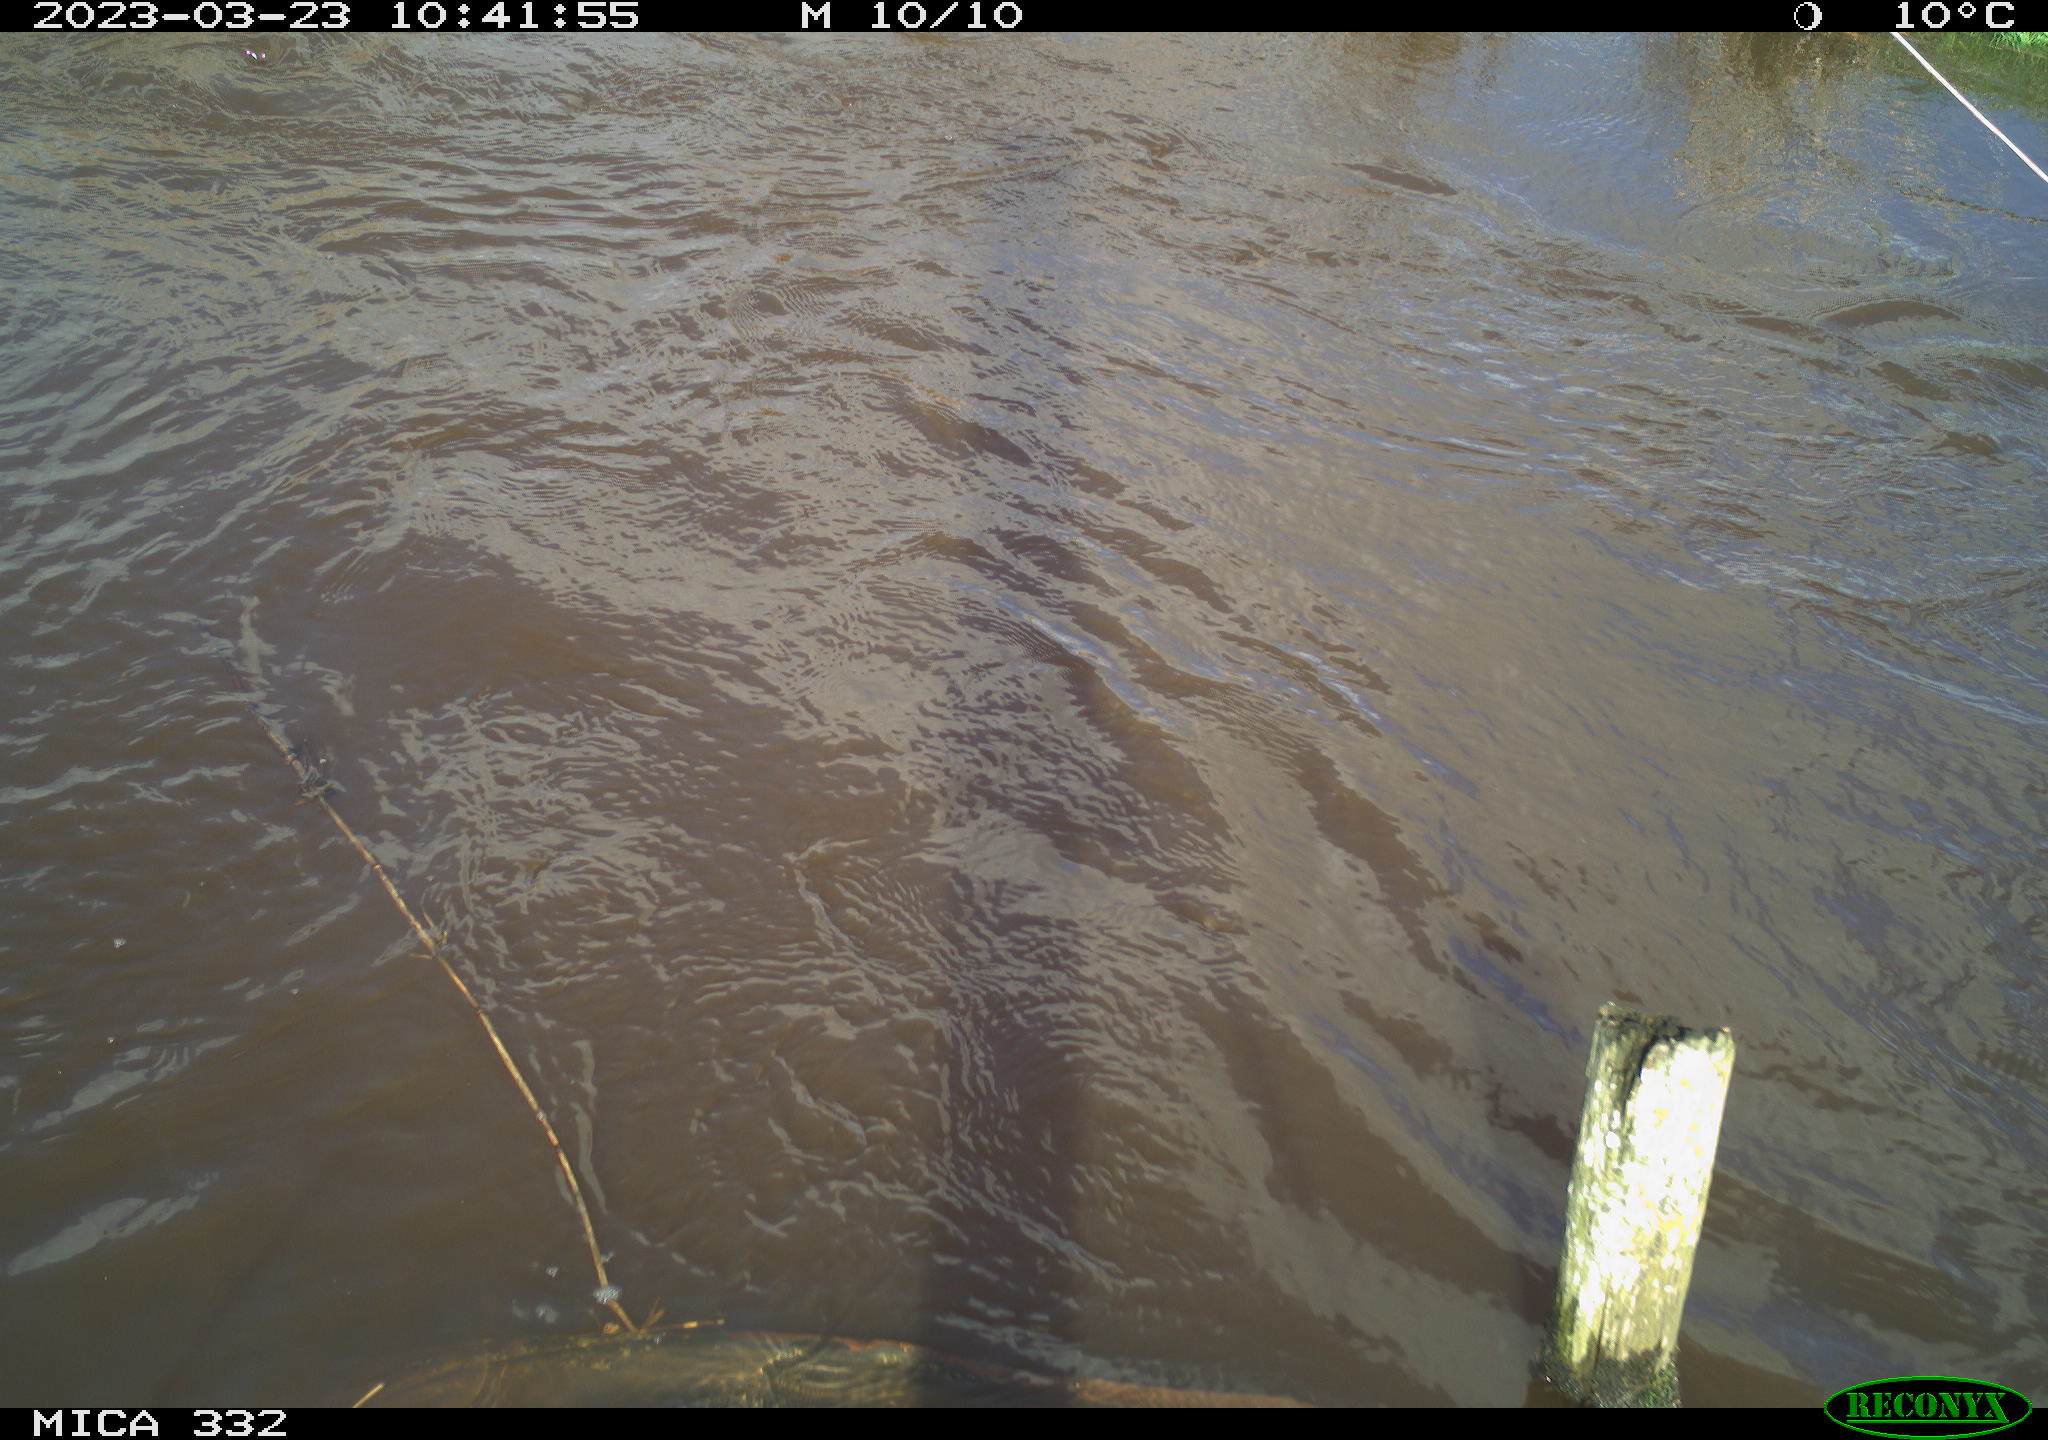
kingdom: Animalia
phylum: Chordata
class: Aves
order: Pelecaniformes
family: Ardeidae
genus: Ardea
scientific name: Ardea
